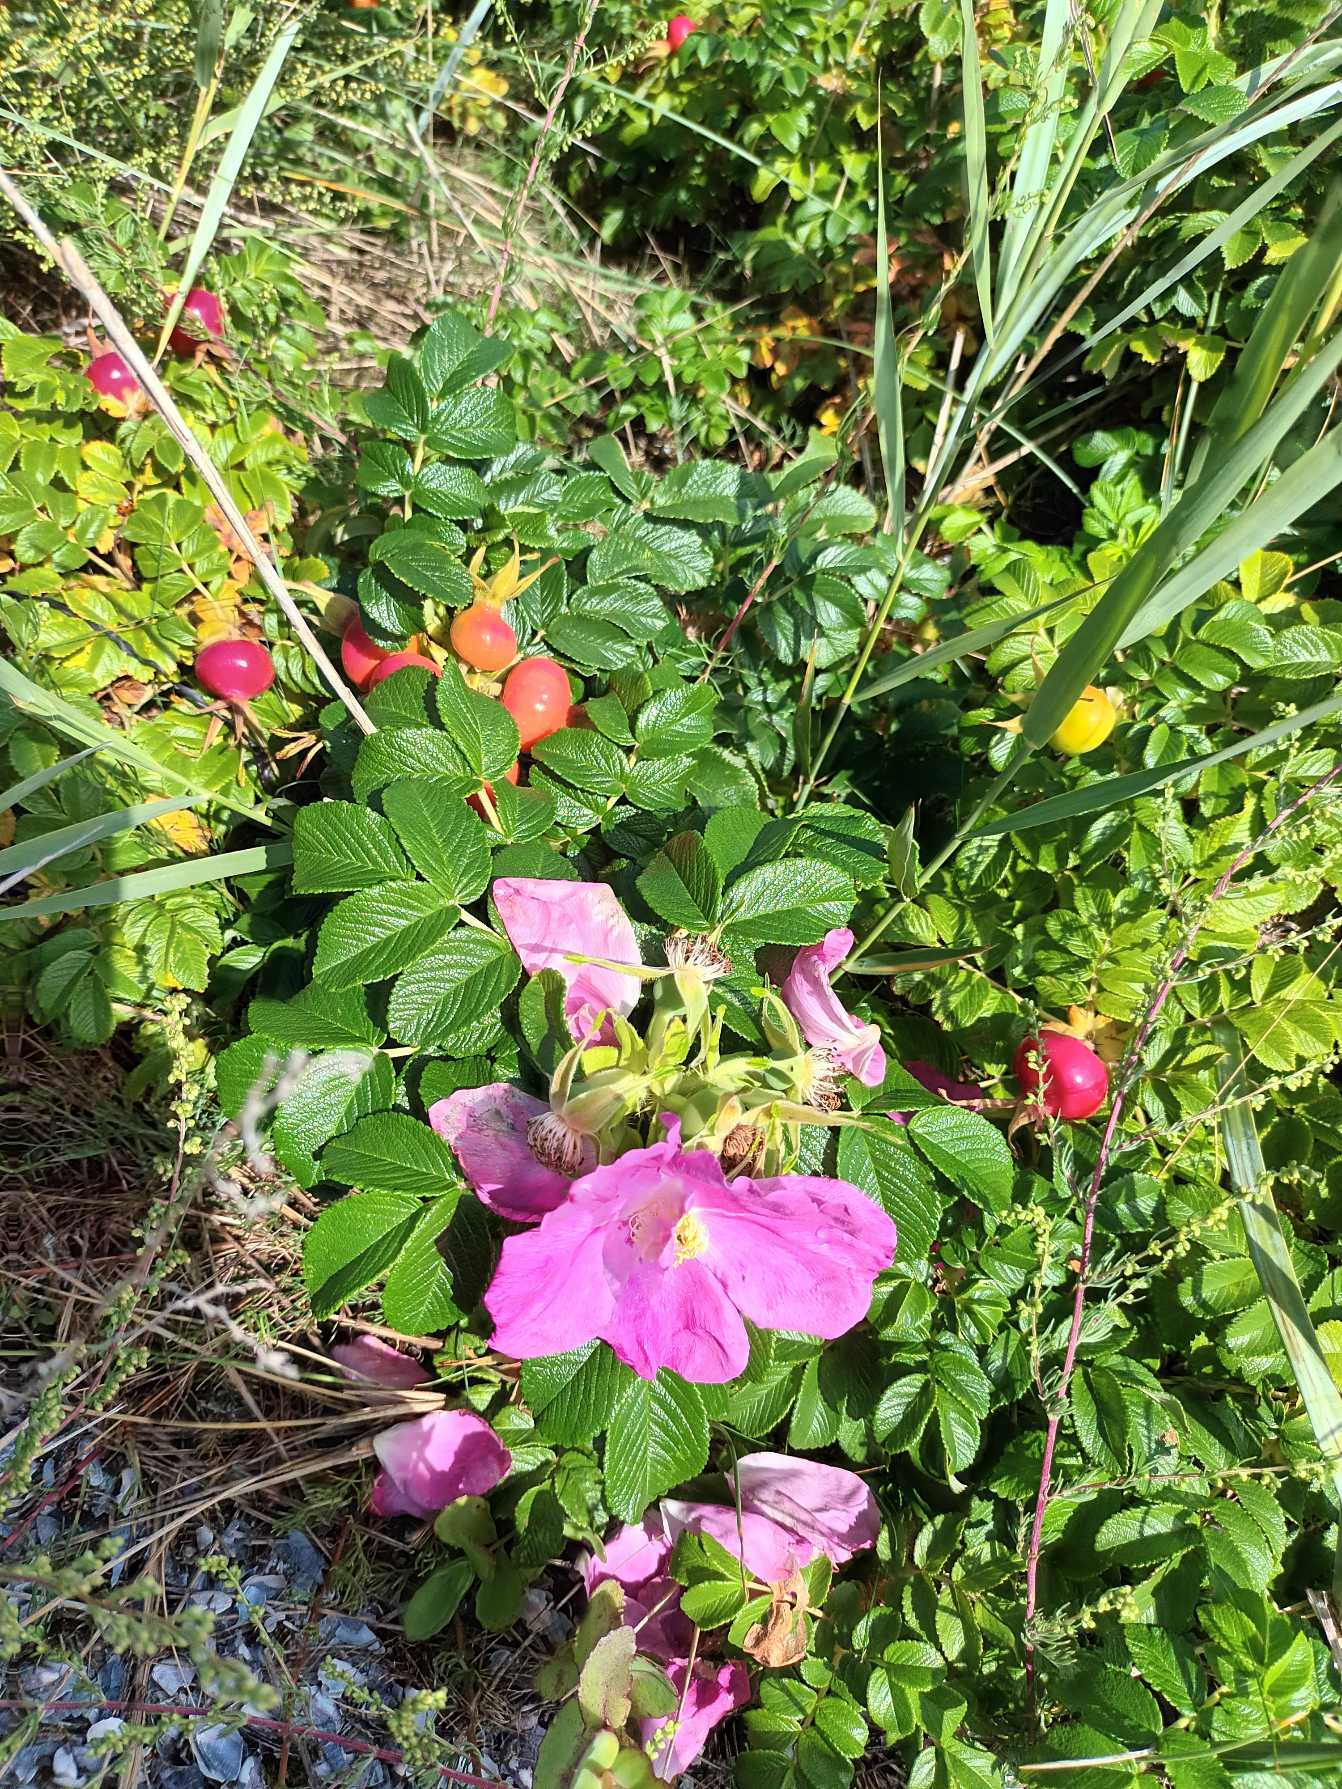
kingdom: Plantae
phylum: Tracheophyta
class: Magnoliopsida
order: Rosales
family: Rosaceae
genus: Rosa
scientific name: Rosa rugosa
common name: Rynket rose
